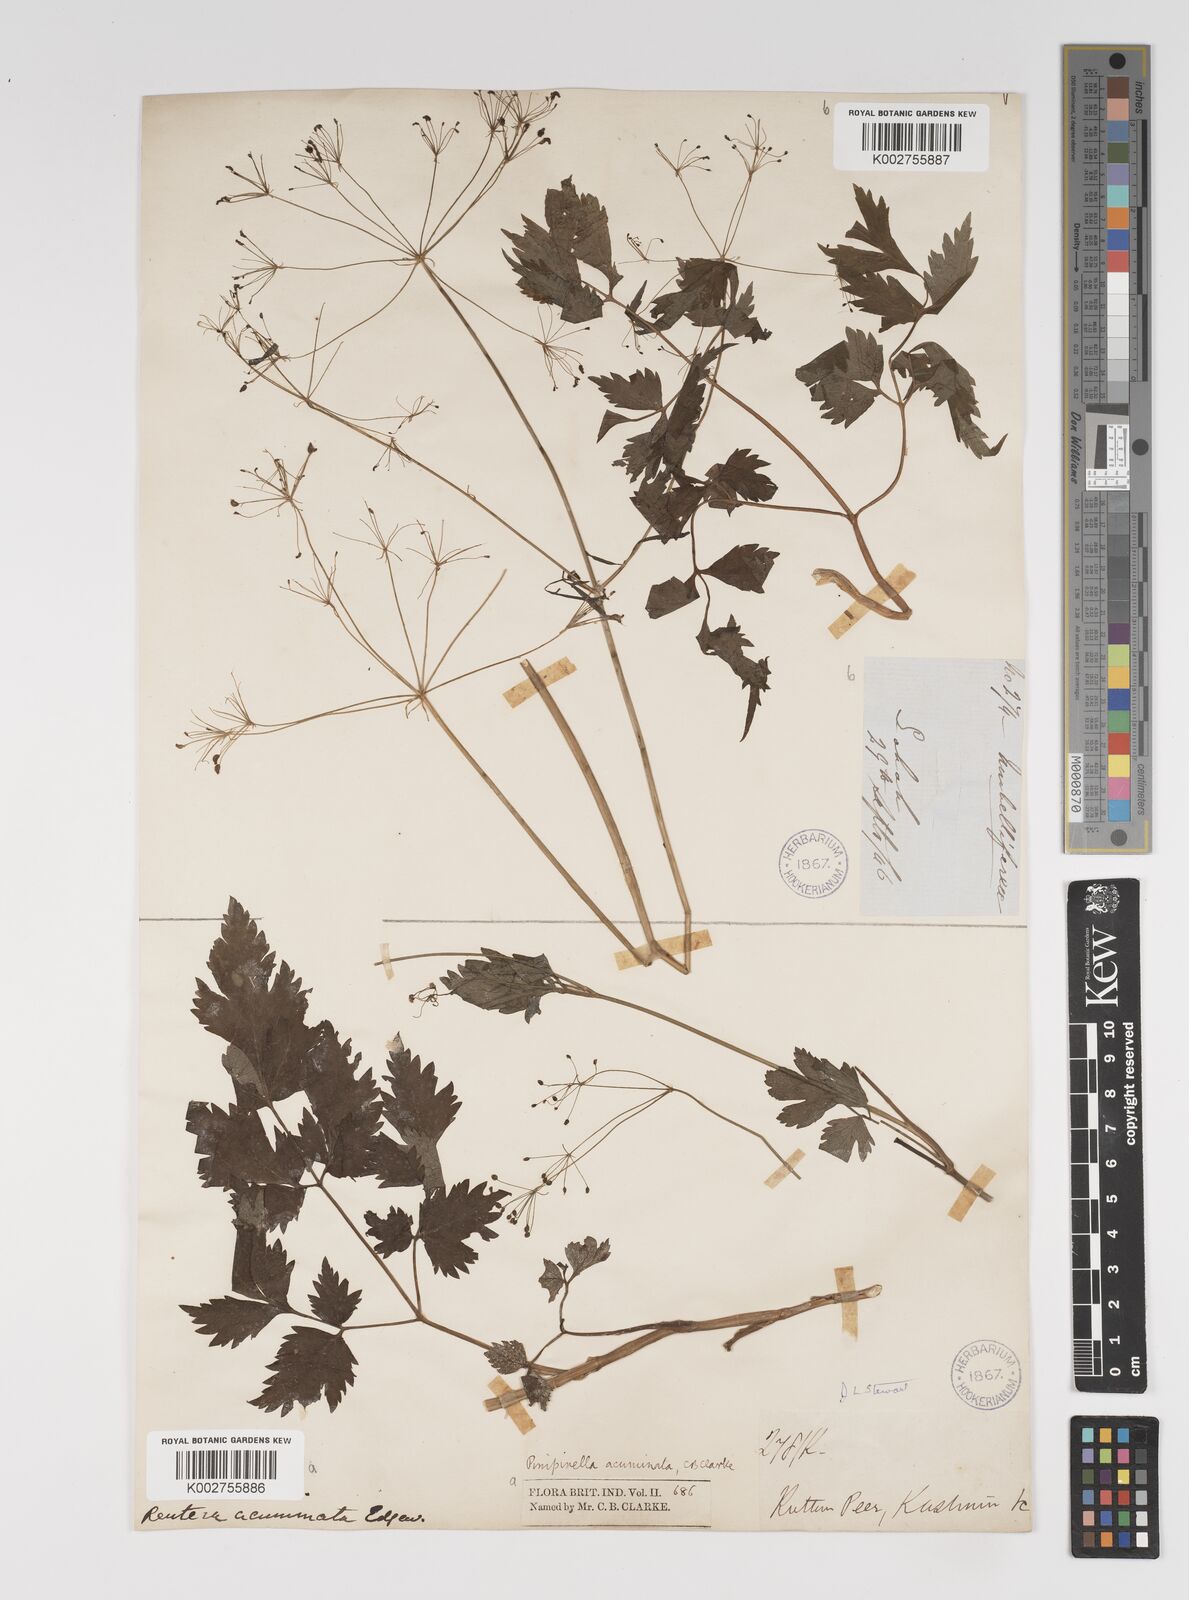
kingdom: Plantae
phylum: Tracheophyta
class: Magnoliopsida
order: Apiales
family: Apiaceae
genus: Pimpinella
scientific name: Pimpinella acuminata
